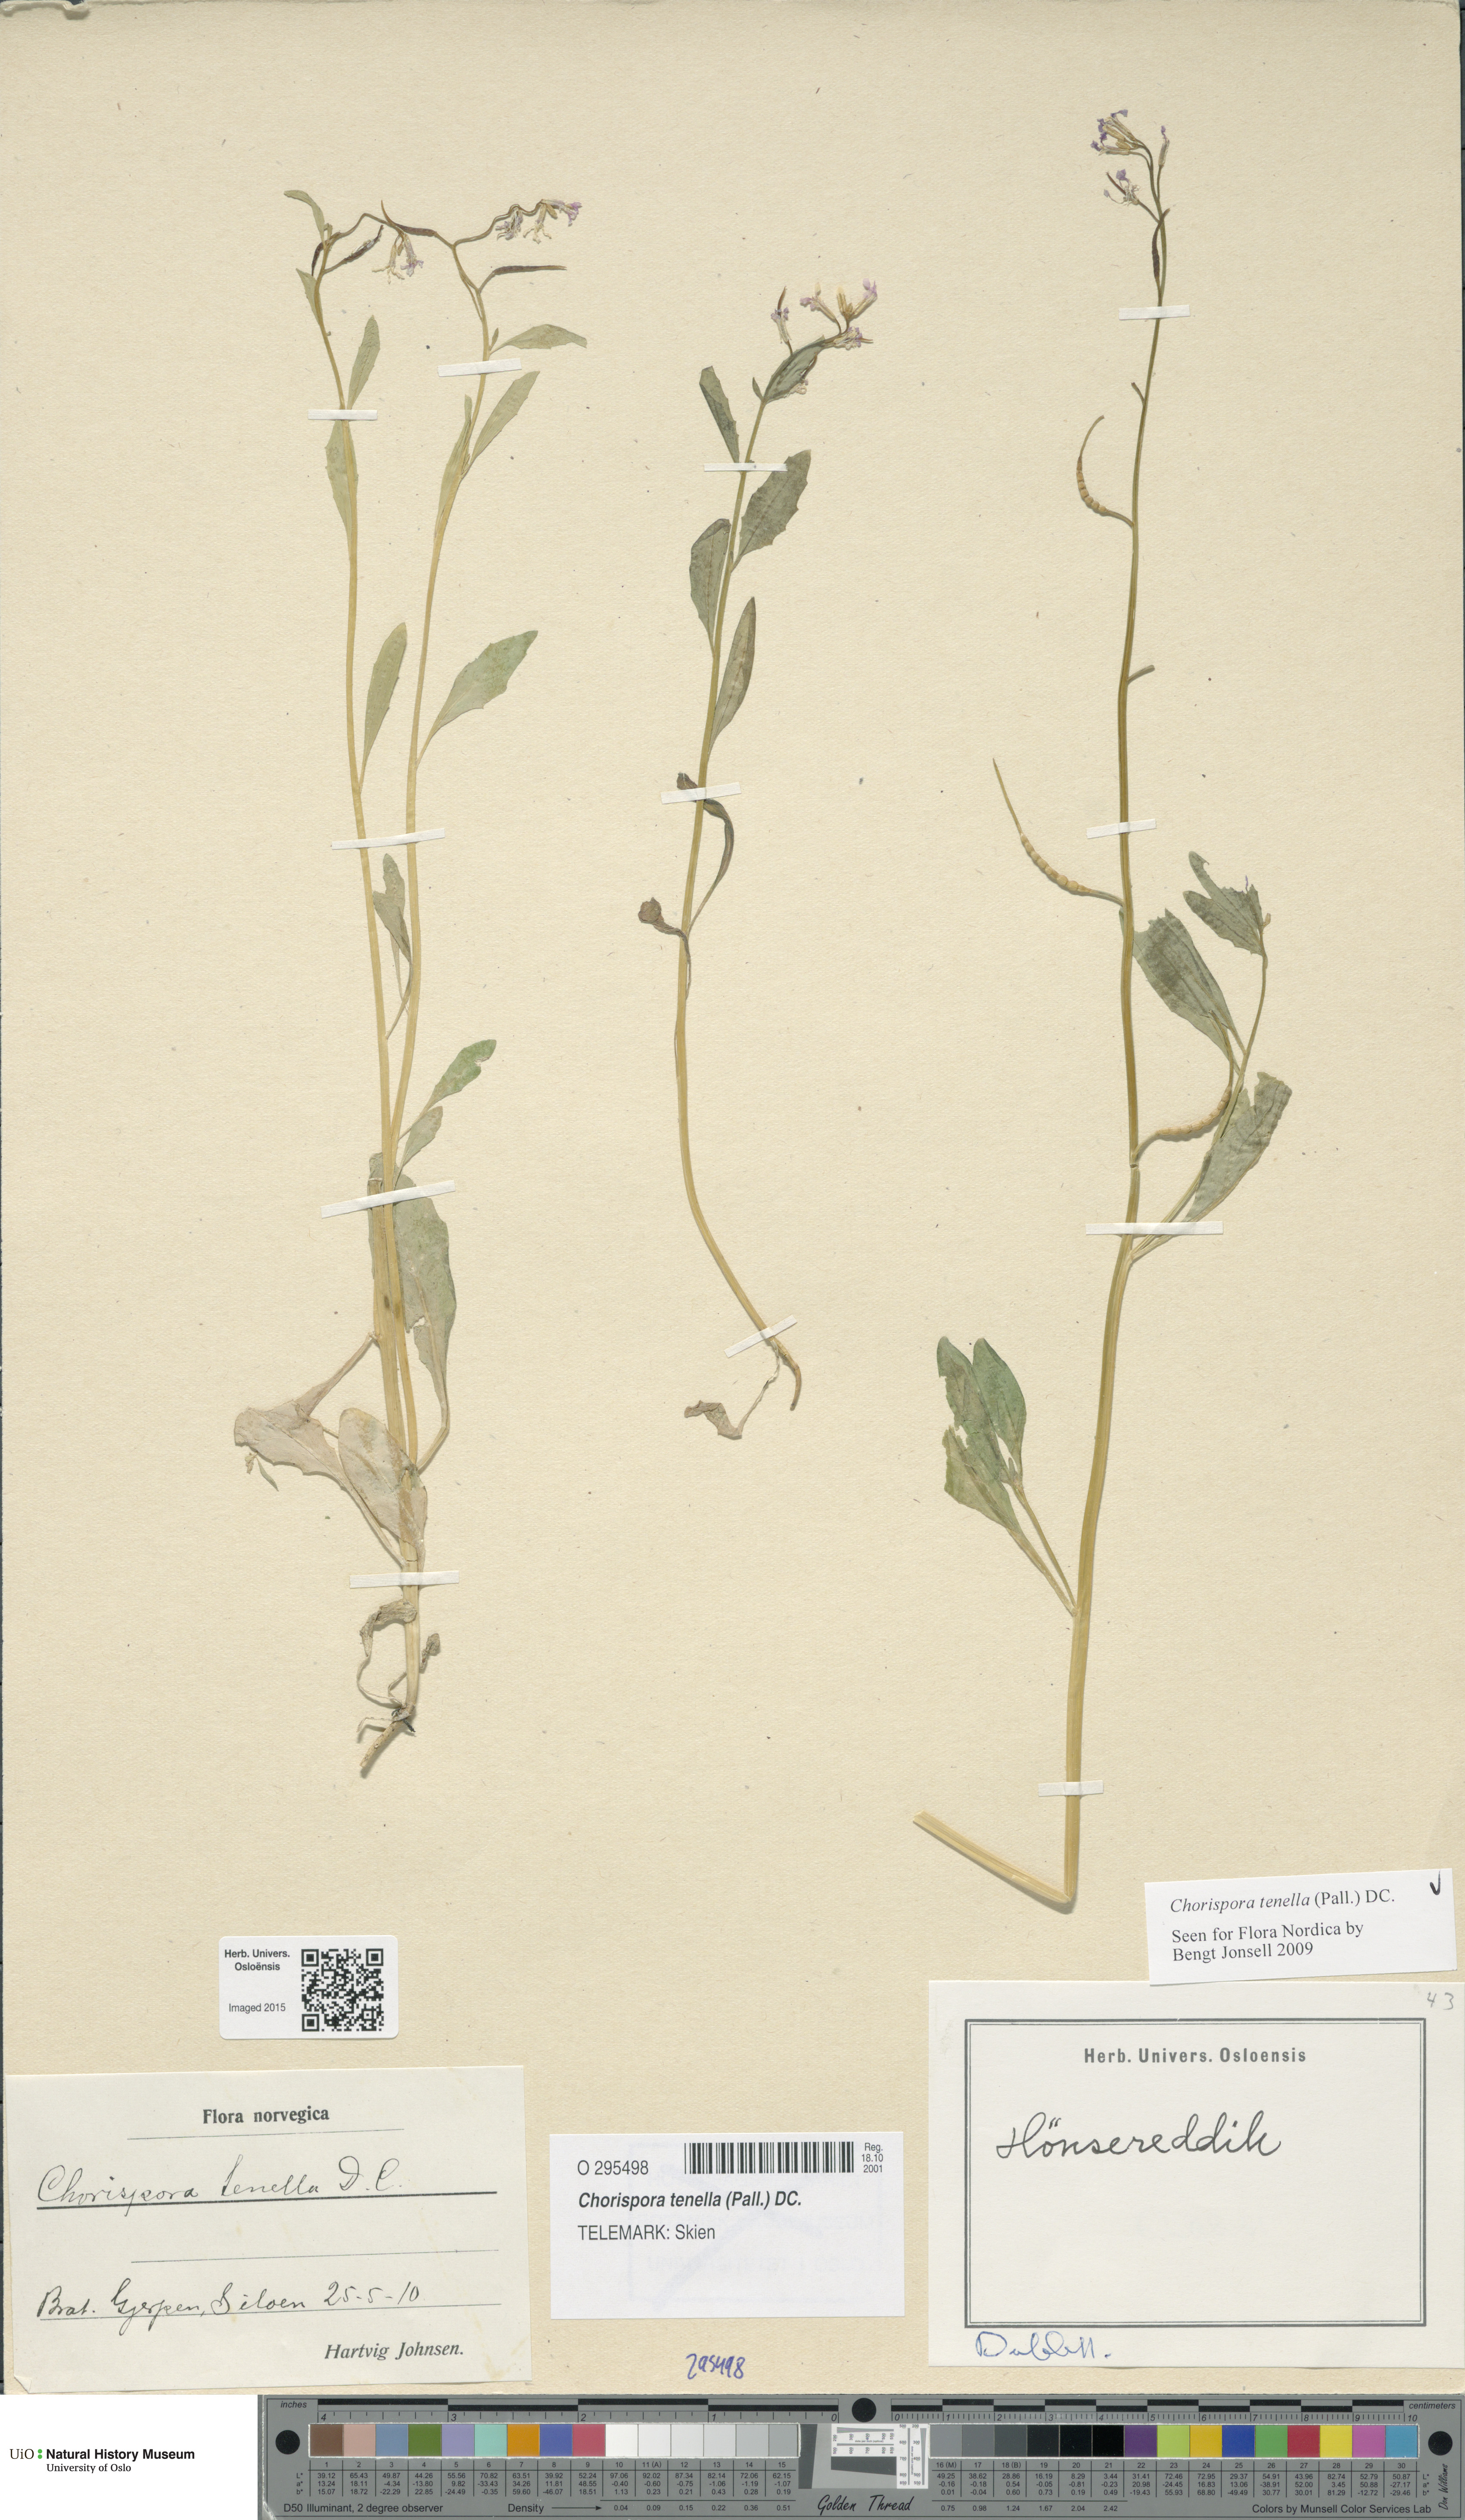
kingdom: Plantae
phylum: Tracheophyta
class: Magnoliopsida
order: Brassicales
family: Brassicaceae
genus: Chorispora
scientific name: Chorispora tenella
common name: Crossflower
